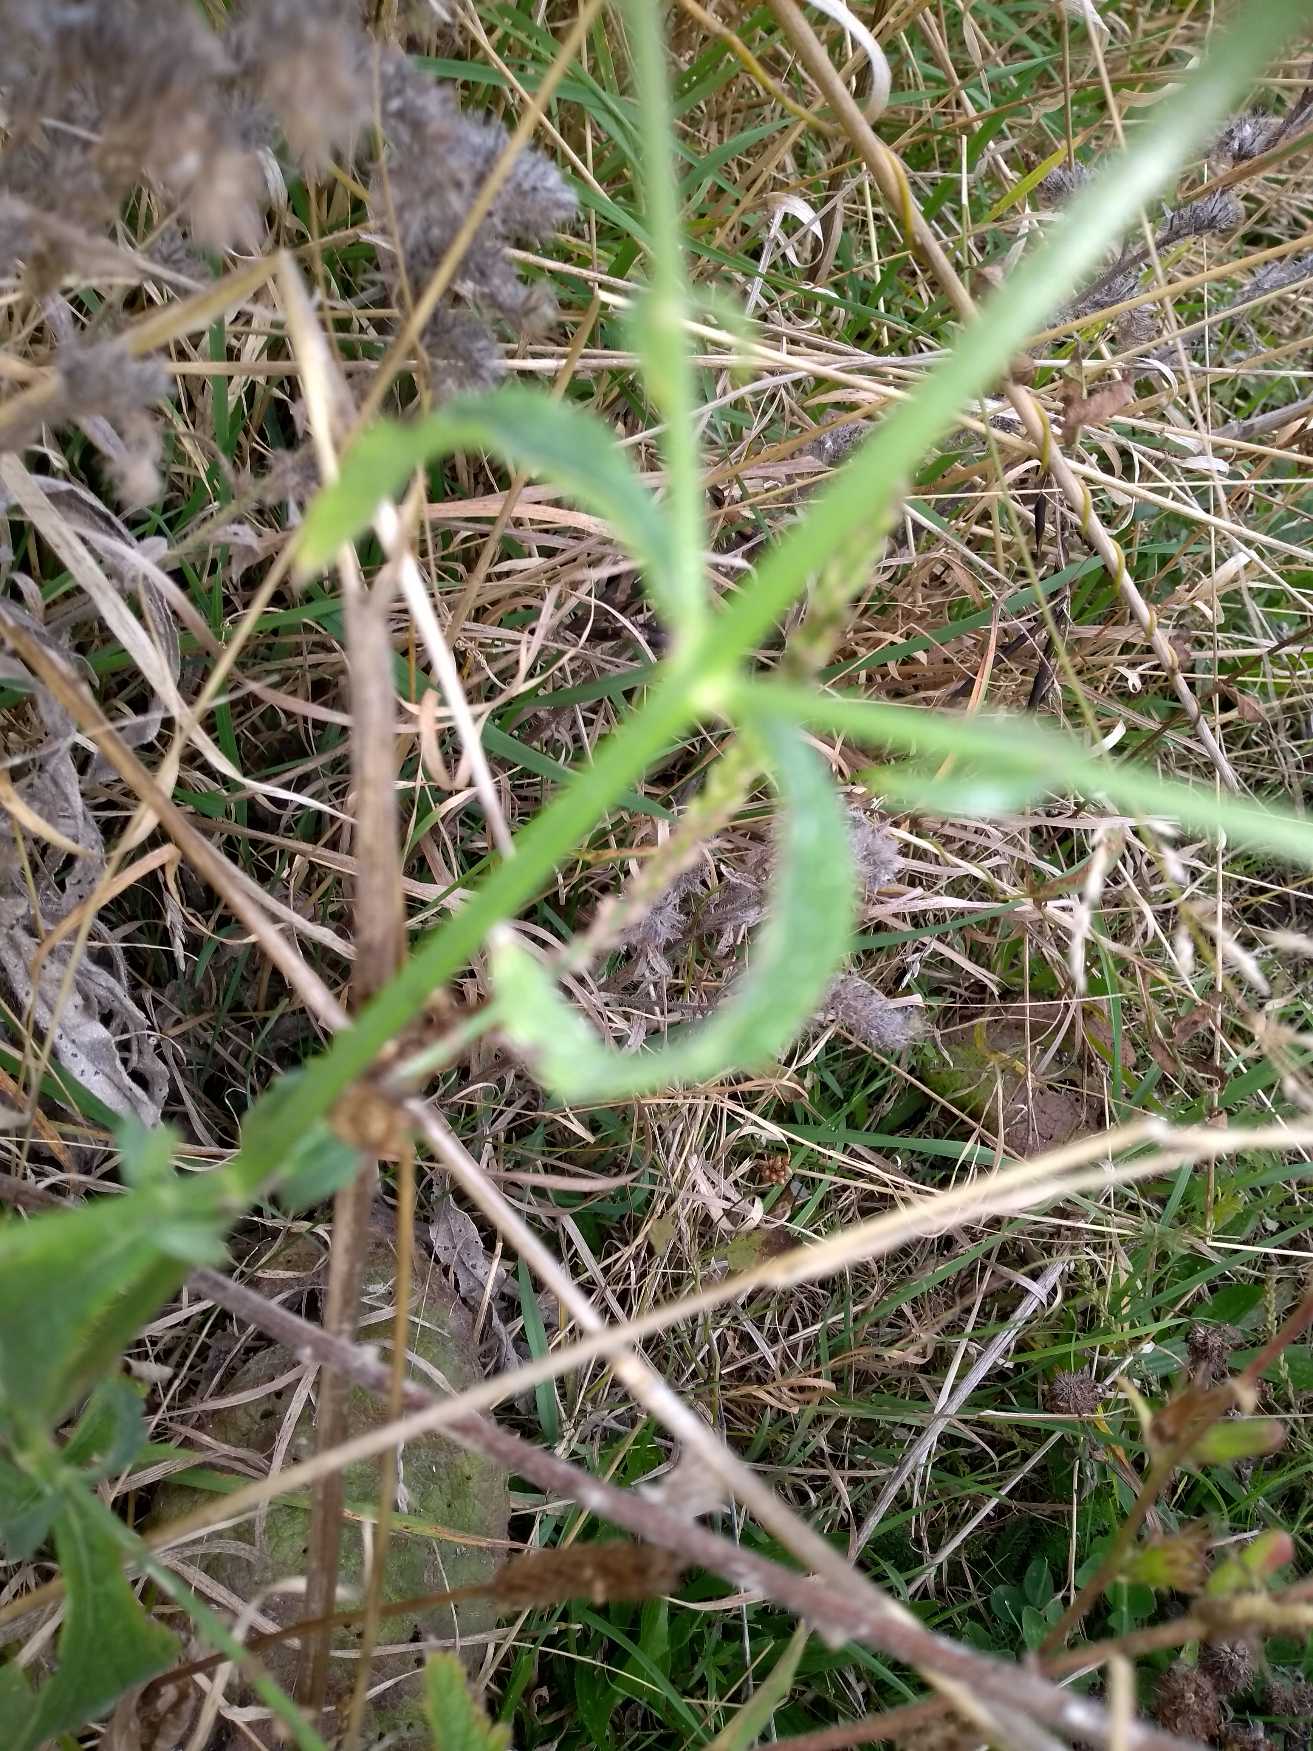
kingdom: Plantae
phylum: Tracheophyta
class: Magnoliopsida
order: Lamiales
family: Verbenaceae
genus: Verbena
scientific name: Verbena officinalis
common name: Læge-jernurt
